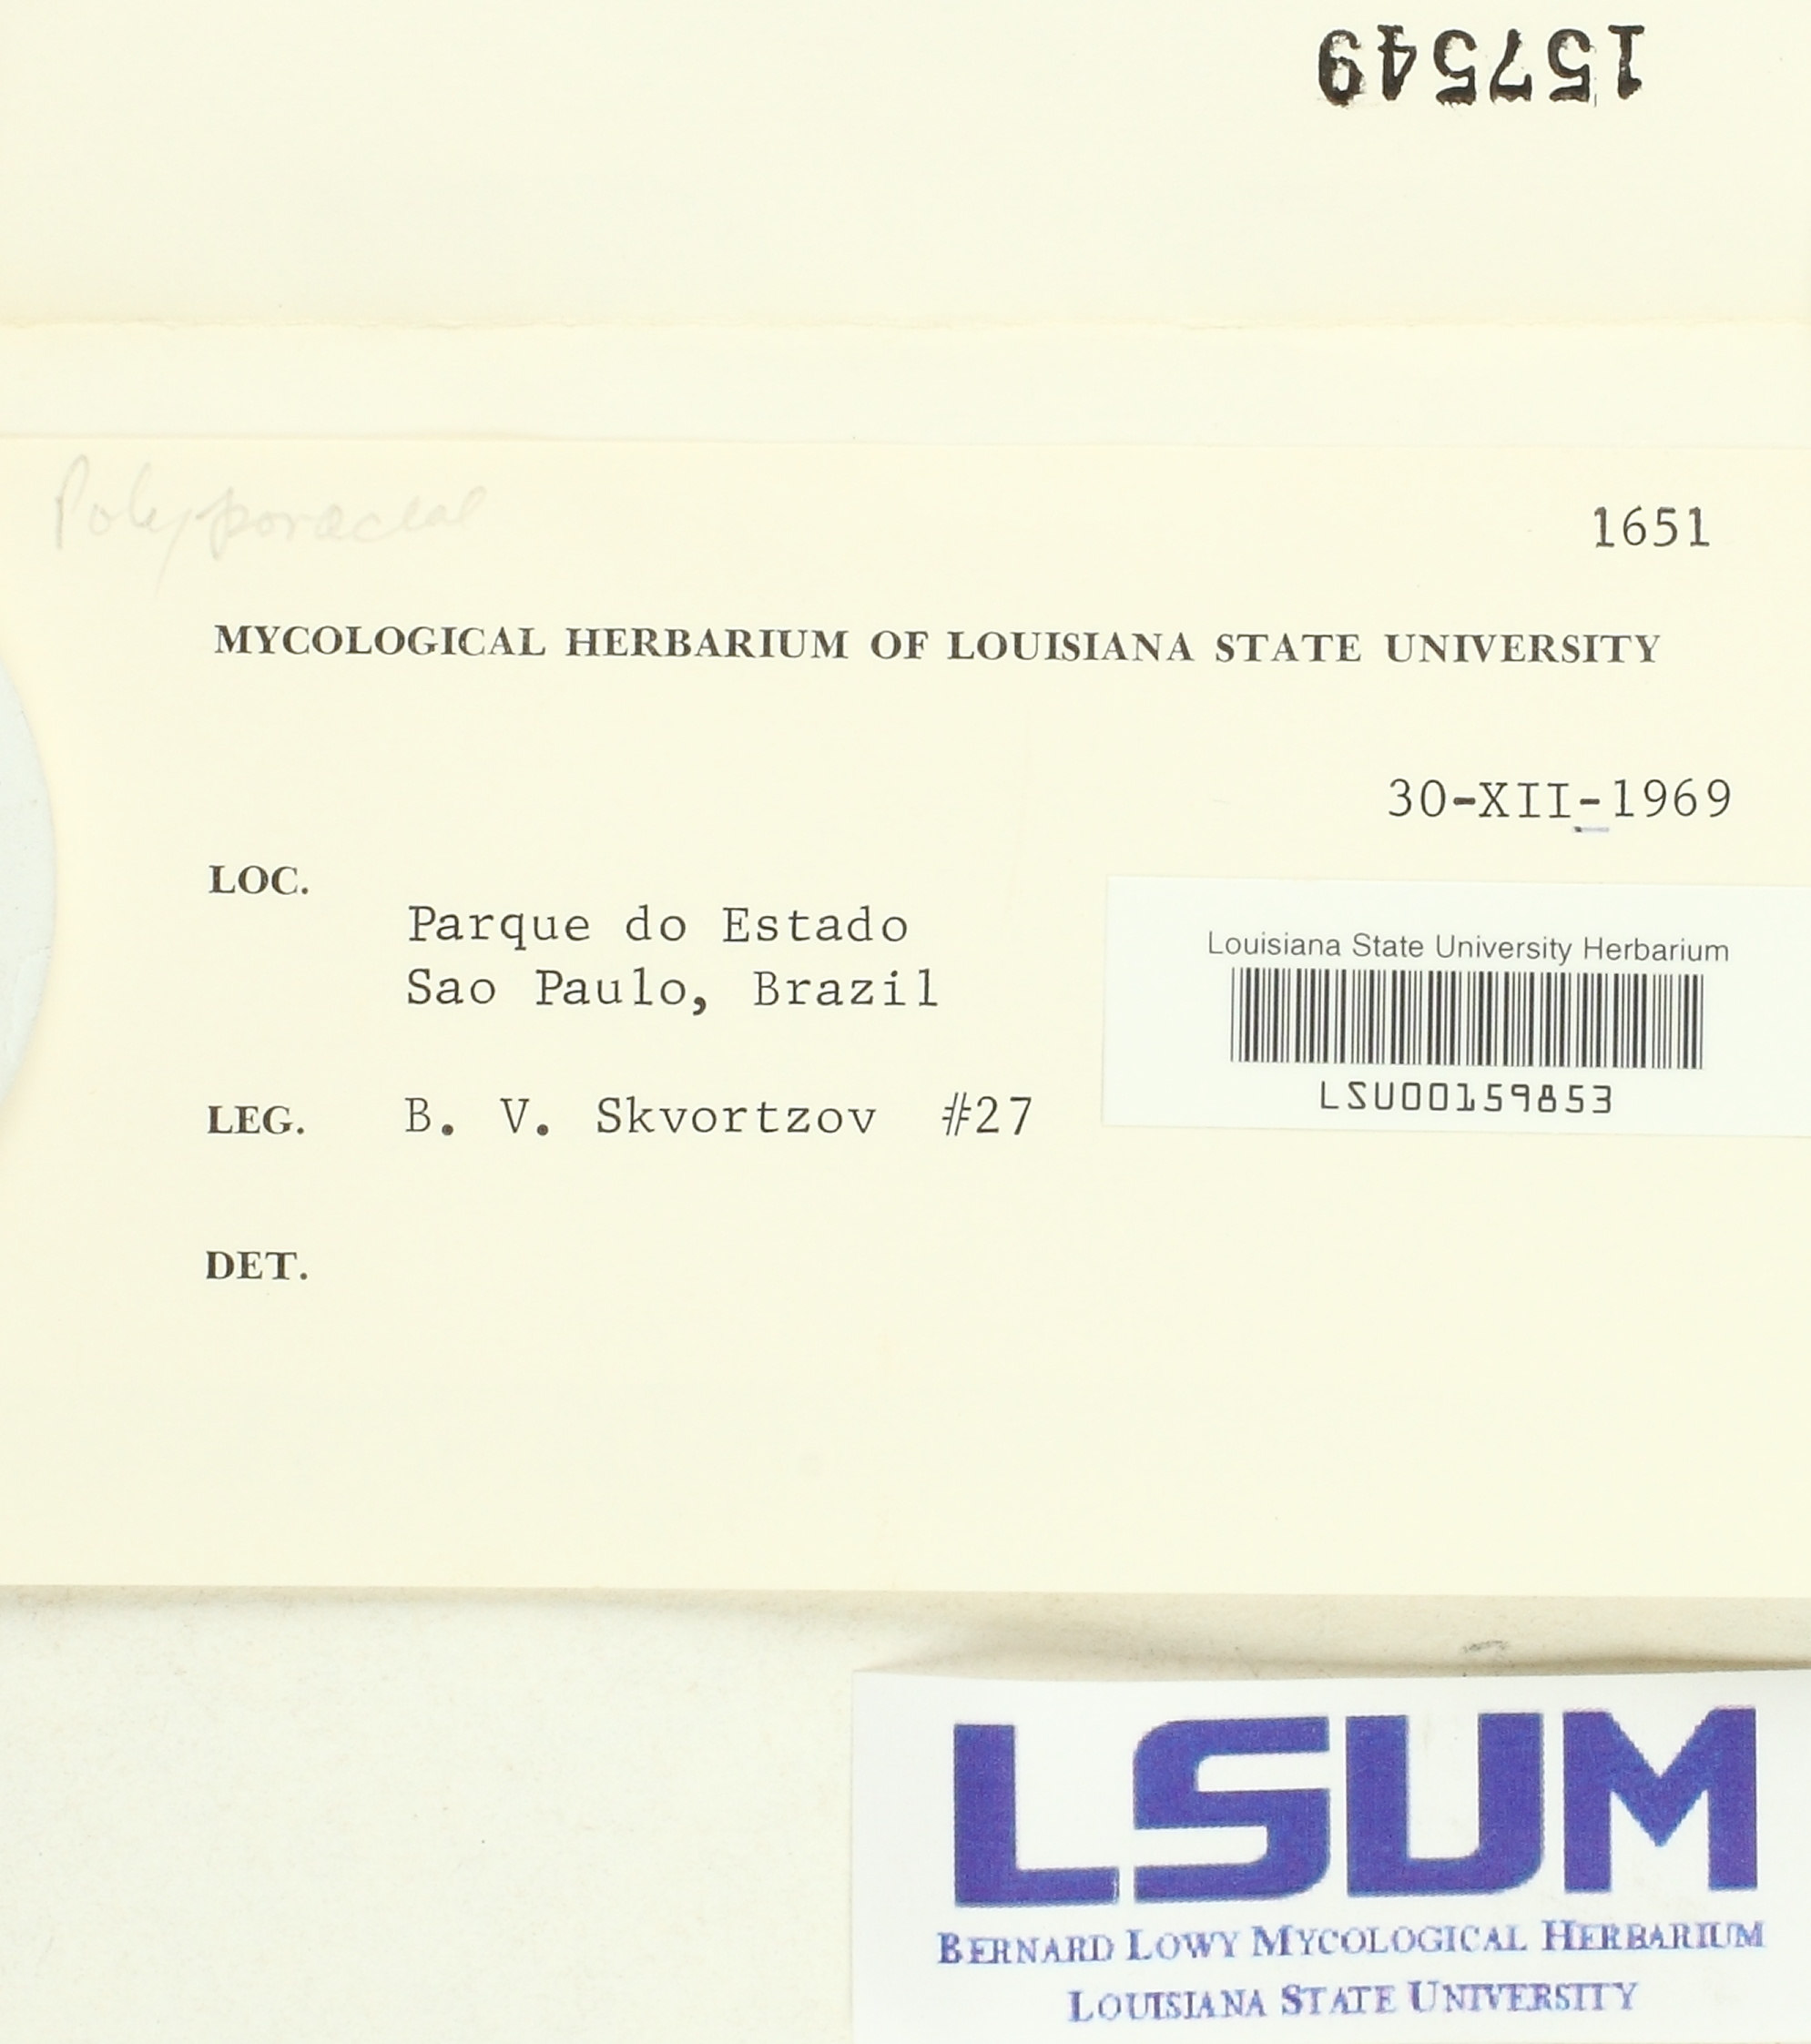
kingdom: Fungi
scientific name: Fungi
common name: Fungi
